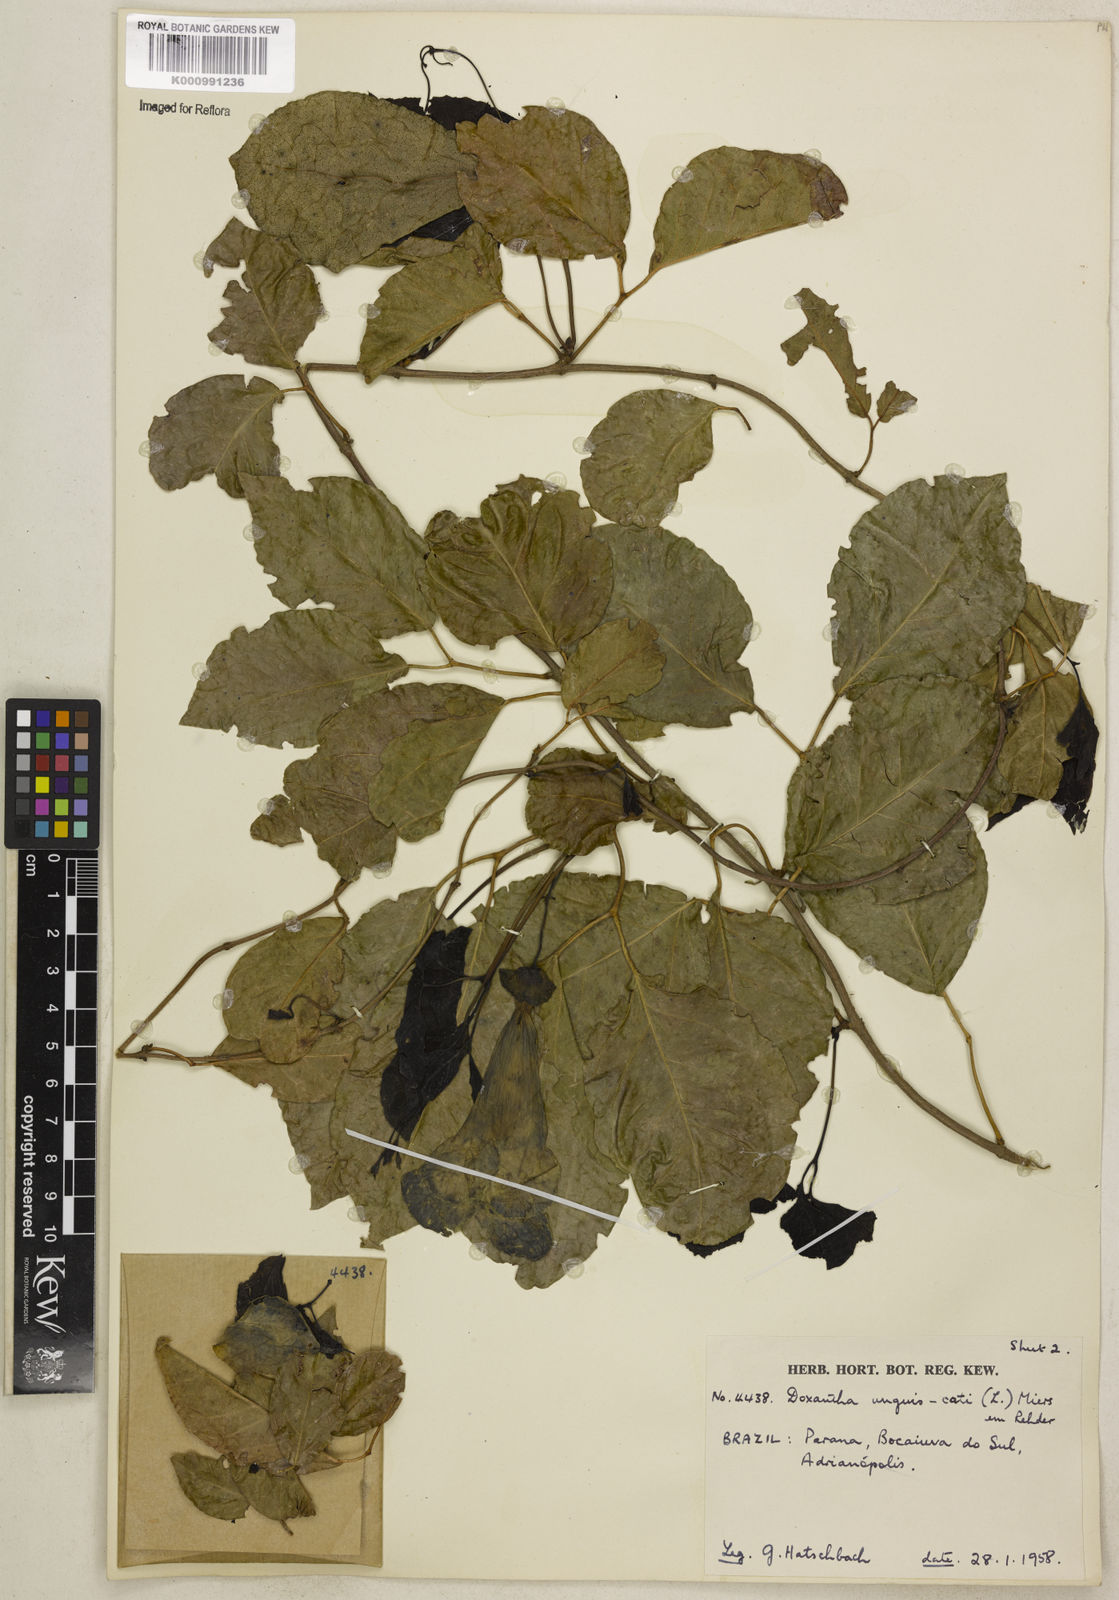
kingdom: Plantae
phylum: Tracheophyta
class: Magnoliopsida
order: Lamiales
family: Bignoniaceae
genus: Dolichandra
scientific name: Dolichandra unguis-cati
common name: Catclaw vine
